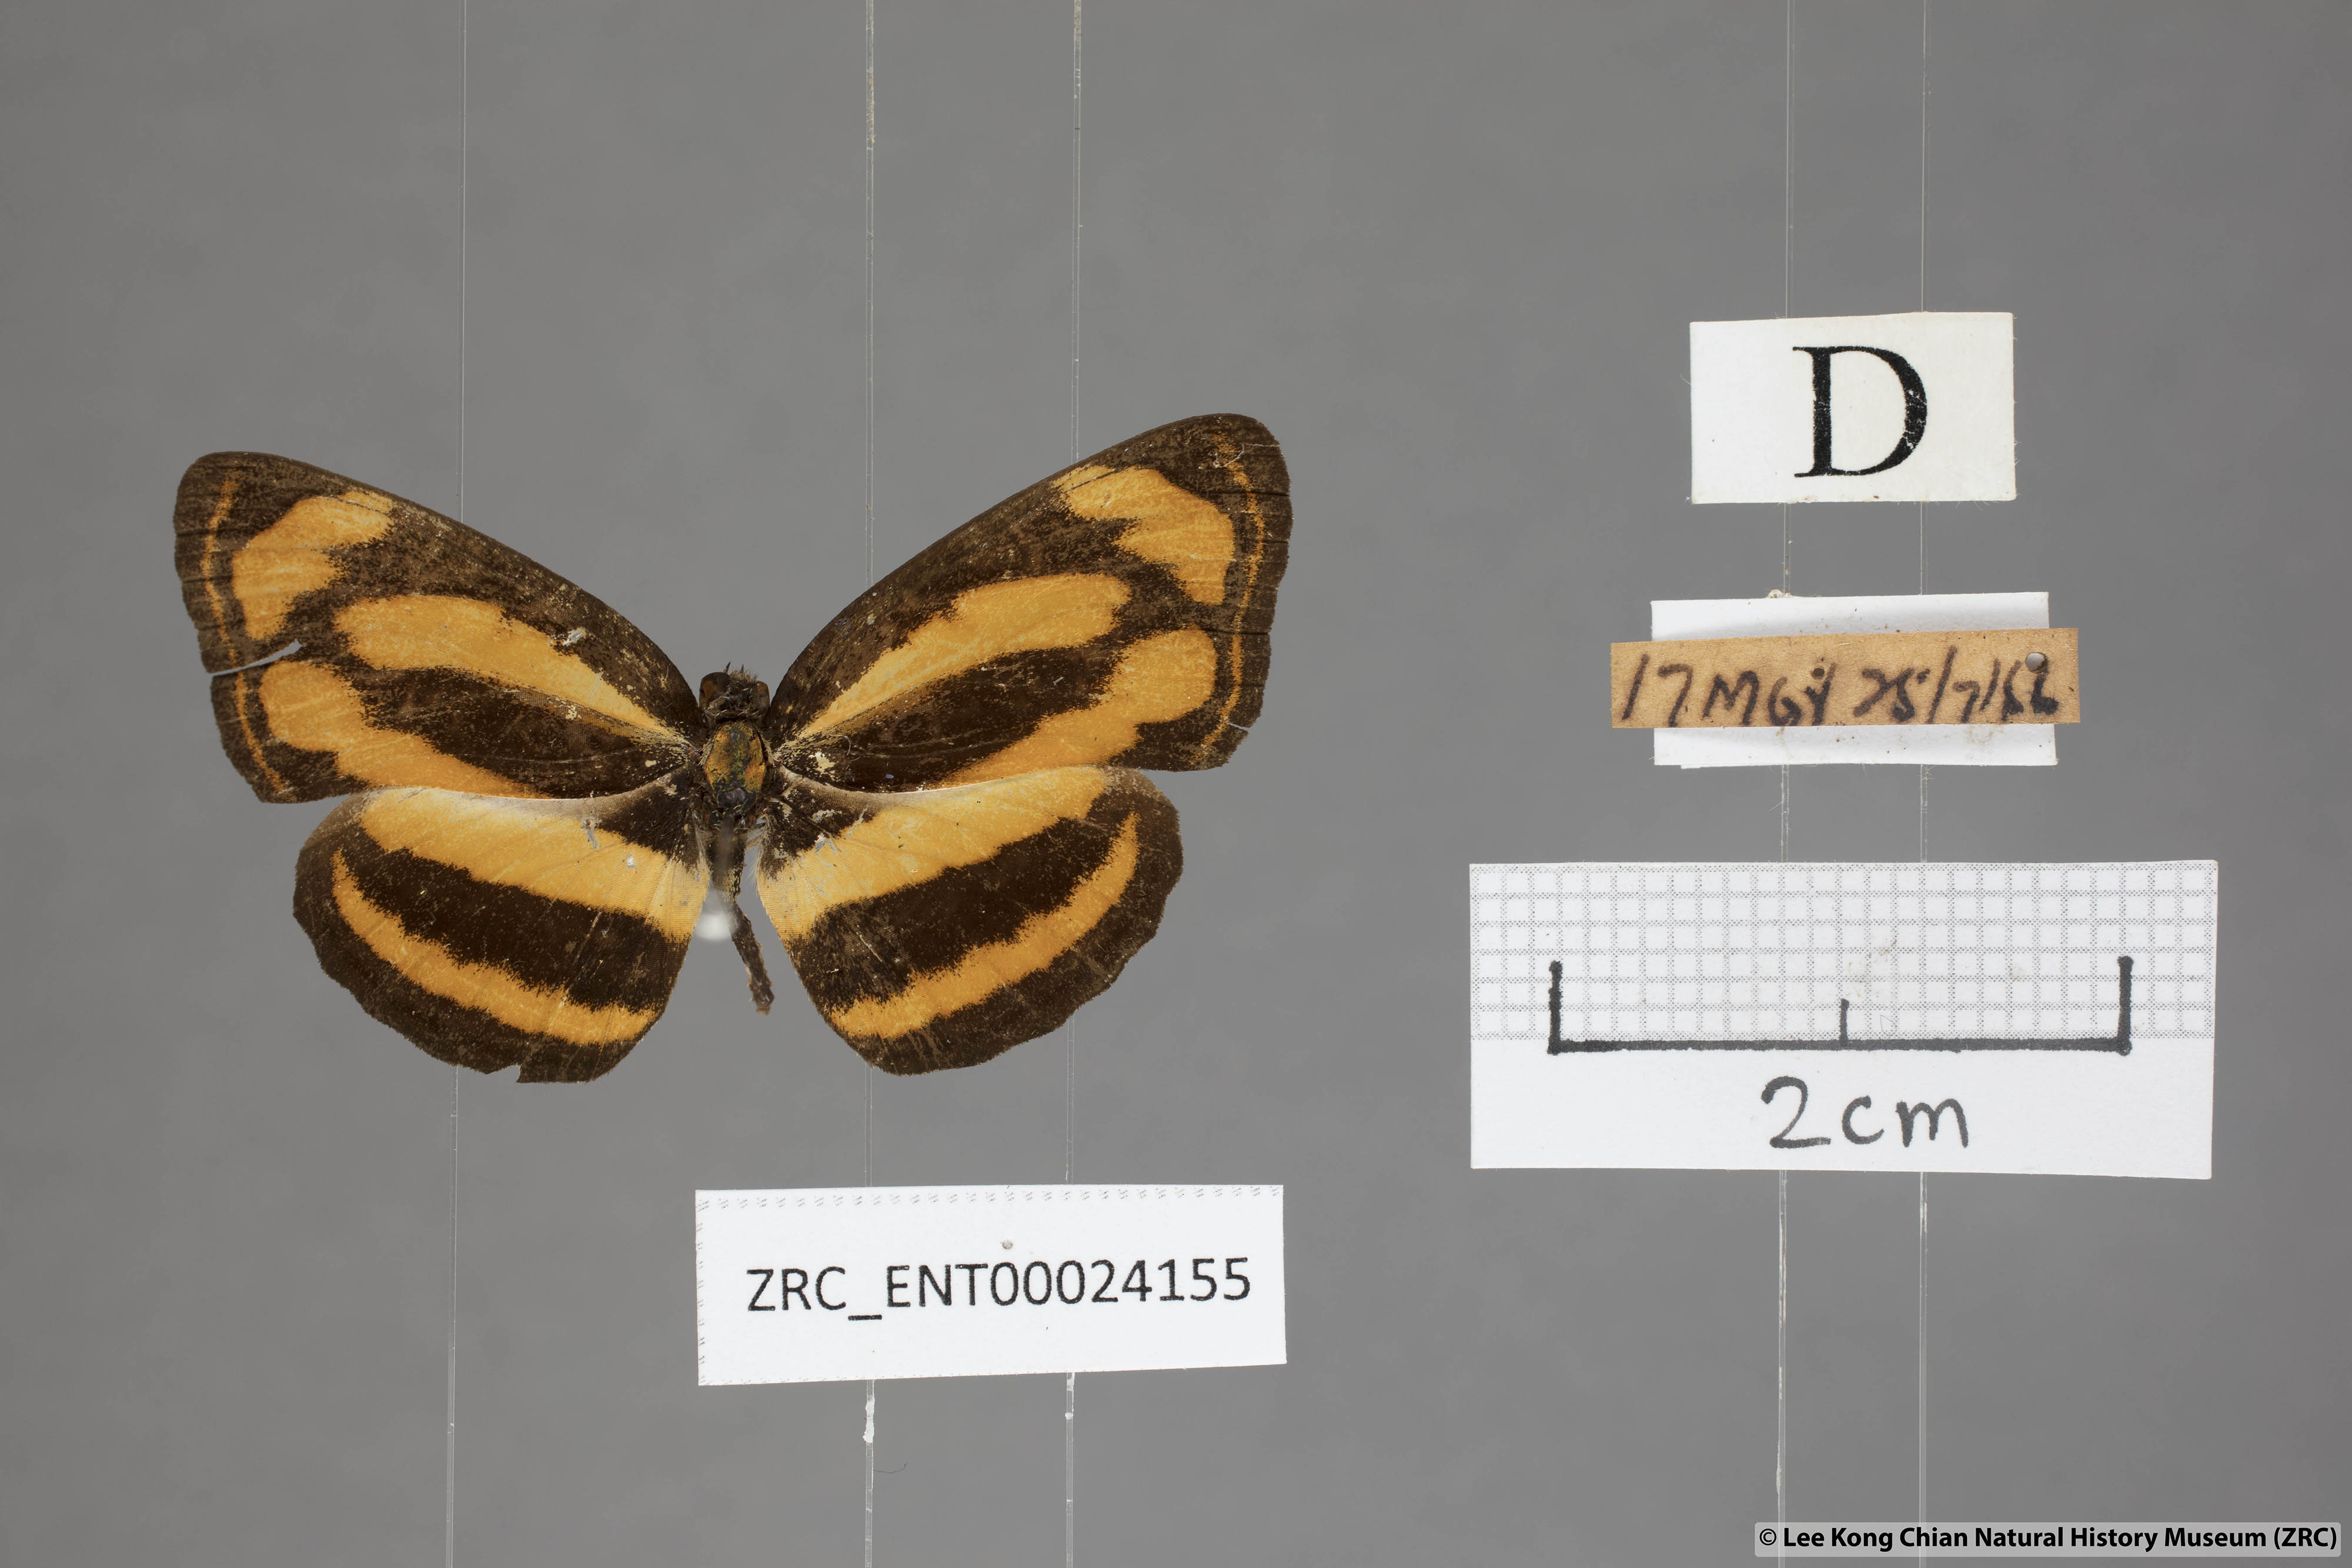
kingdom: Animalia
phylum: Arthropoda
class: Insecta
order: Lepidoptera
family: Nymphalidae
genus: Pantoporia
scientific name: Pantoporia sandaka
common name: Extra lascar
